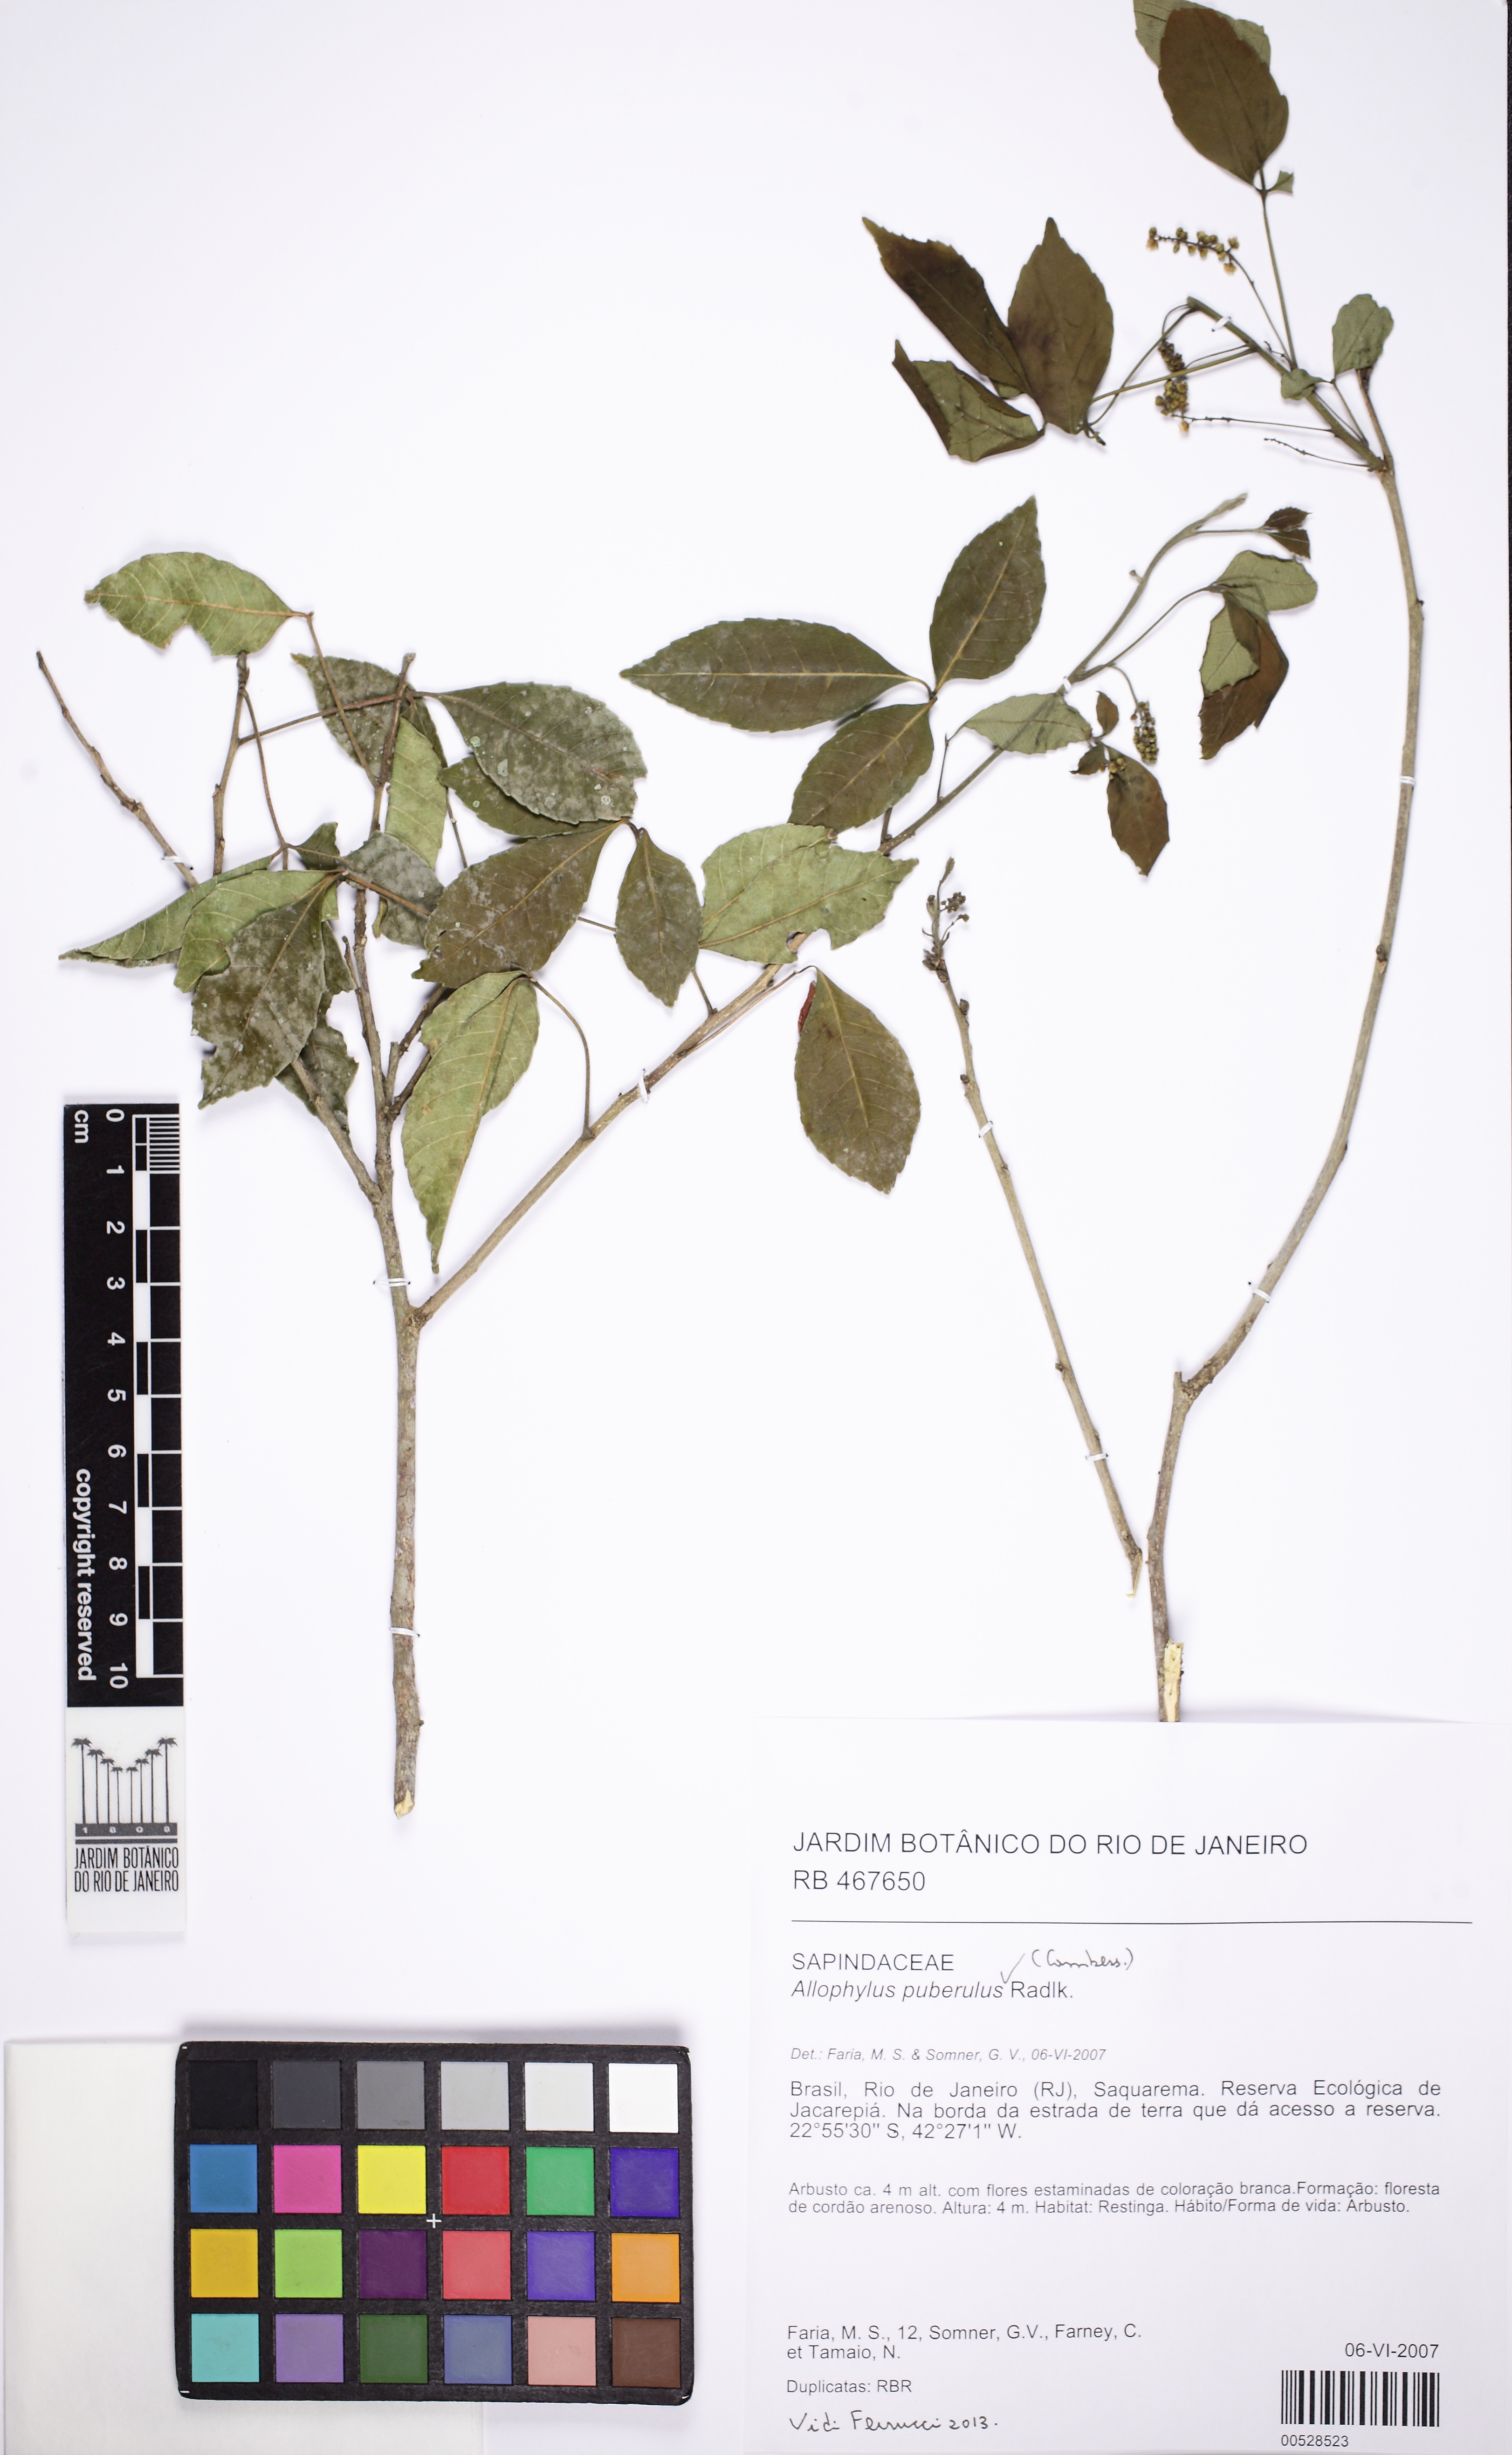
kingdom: Plantae
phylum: Tracheophyta
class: Magnoliopsida
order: Sapindales
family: Sapindaceae
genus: Allophylus
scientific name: Allophylus puberulus
